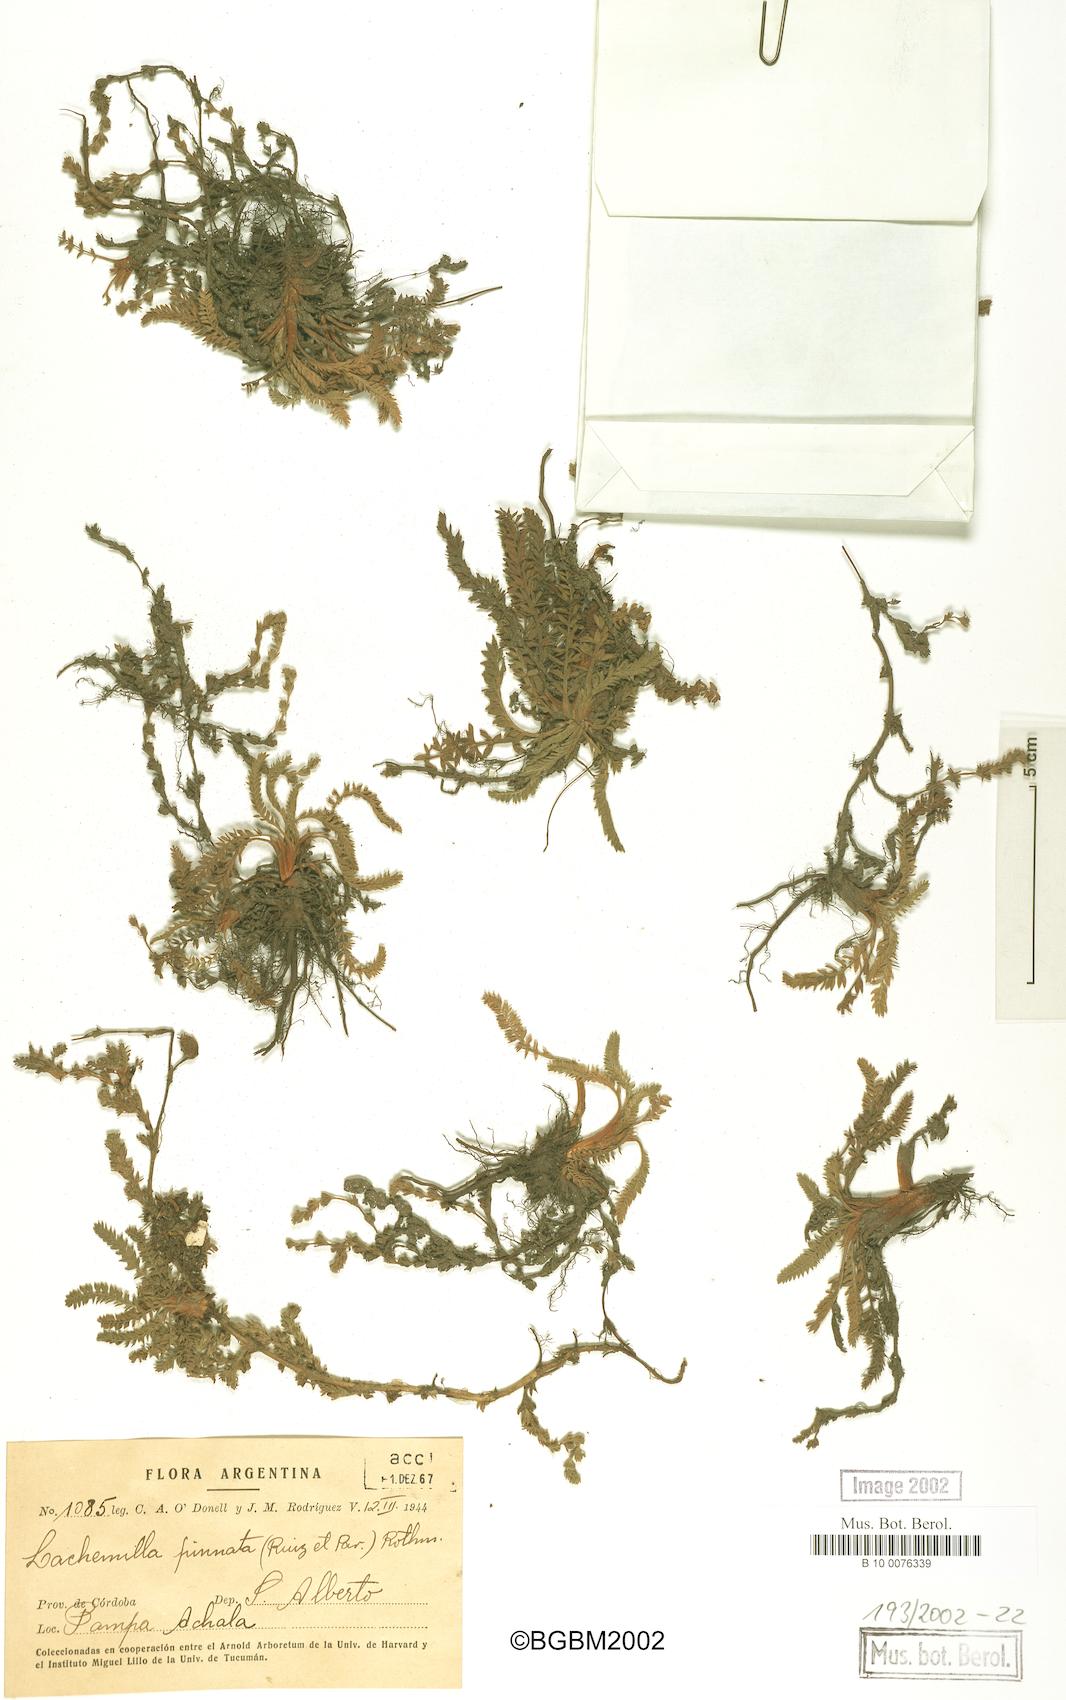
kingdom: Plantae
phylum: Tracheophyta
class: Magnoliopsida
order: Rosales
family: Rosaceae
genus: Lachemilla
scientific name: Lachemilla pinnata
